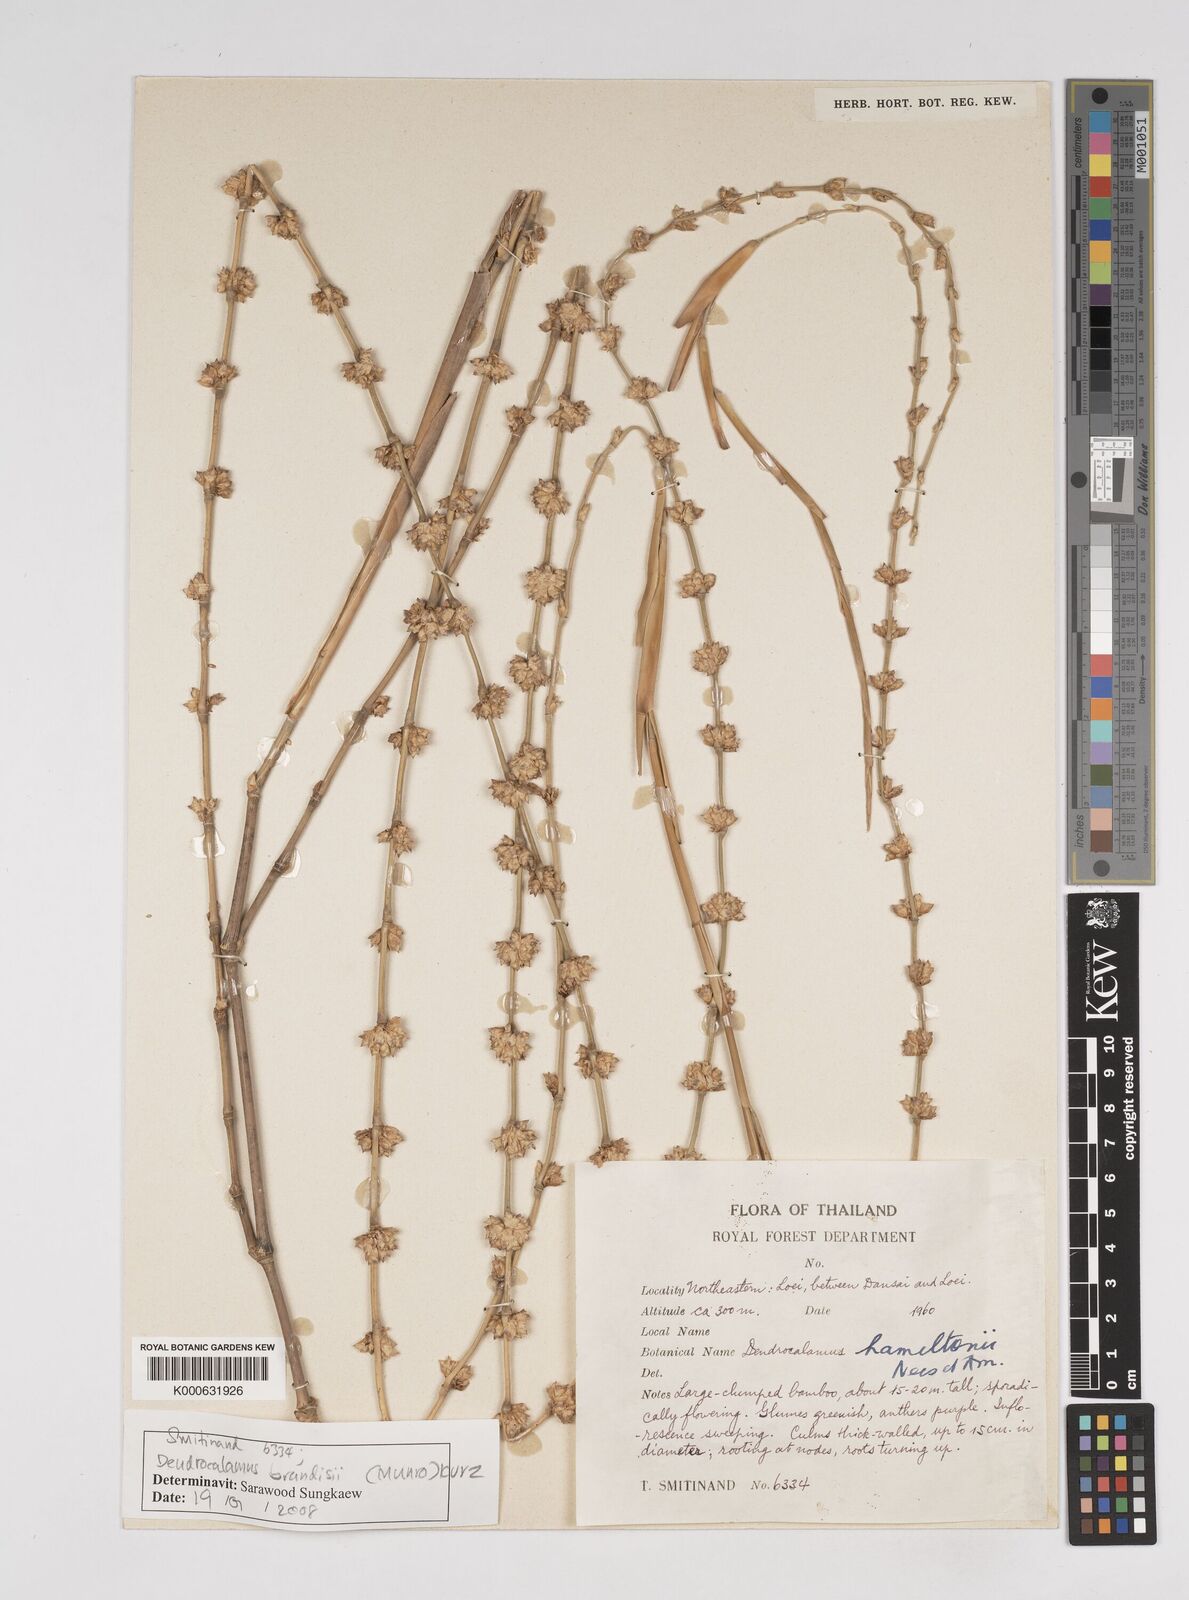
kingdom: Plantae
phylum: Tracheophyta
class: Liliopsida
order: Poales
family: Poaceae
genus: Dendrocalamus
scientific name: Dendrocalamus brandisii
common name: Velvetleaf bamboo
